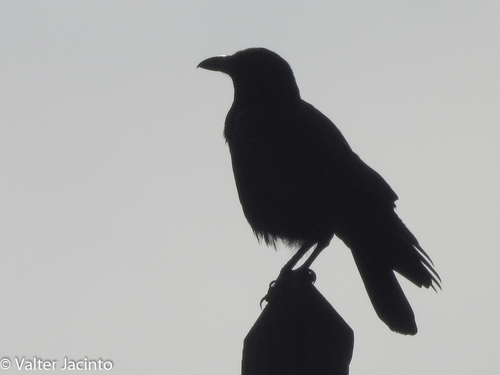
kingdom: Animalia
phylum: Chordata
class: Aves
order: Passeriformes
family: Corvidae
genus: Corvus
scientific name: Corvus corone
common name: Carrion crow
